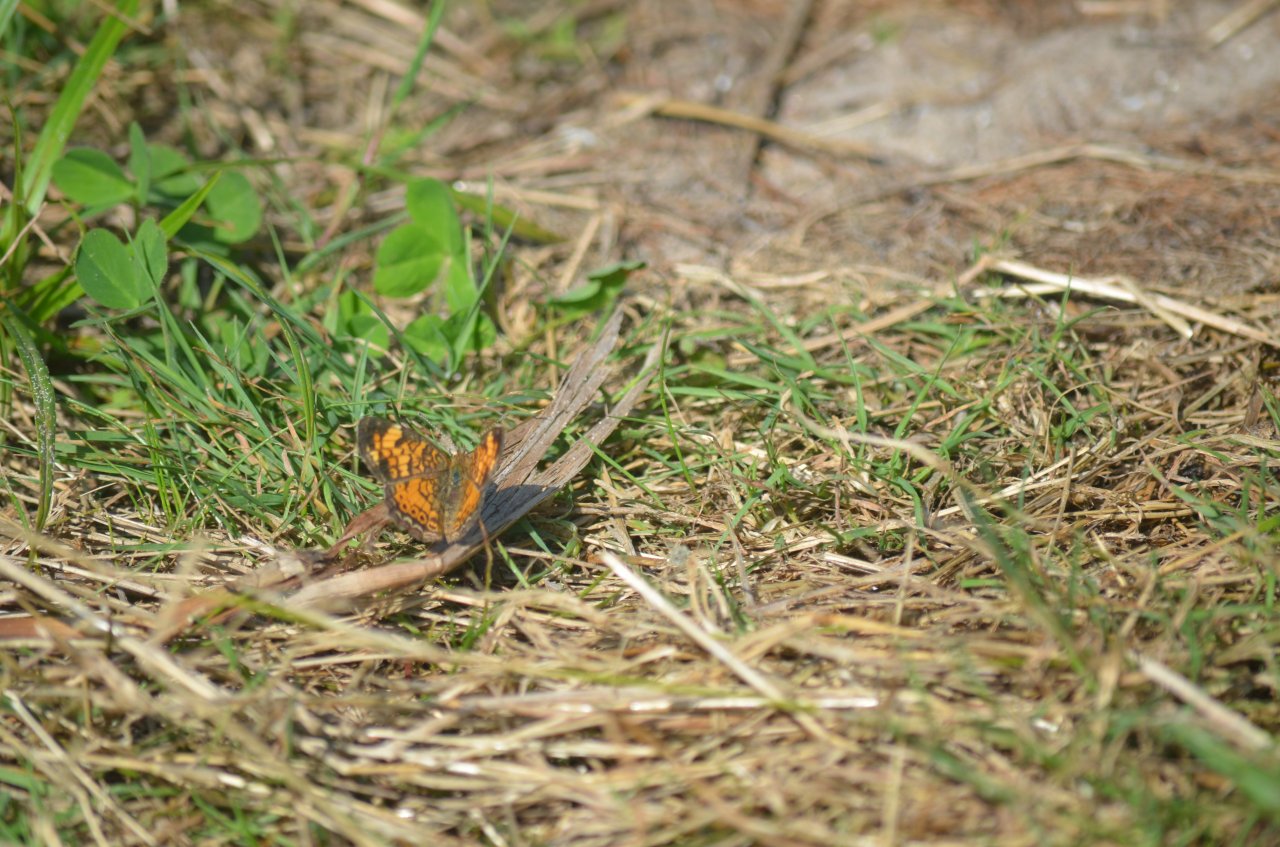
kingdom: Animalia
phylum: Arthropoda
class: Insecta
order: Lepidoptera
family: Nymphalidae
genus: Phyciodes
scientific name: Phyciodes tharos
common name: Northern Crescent
